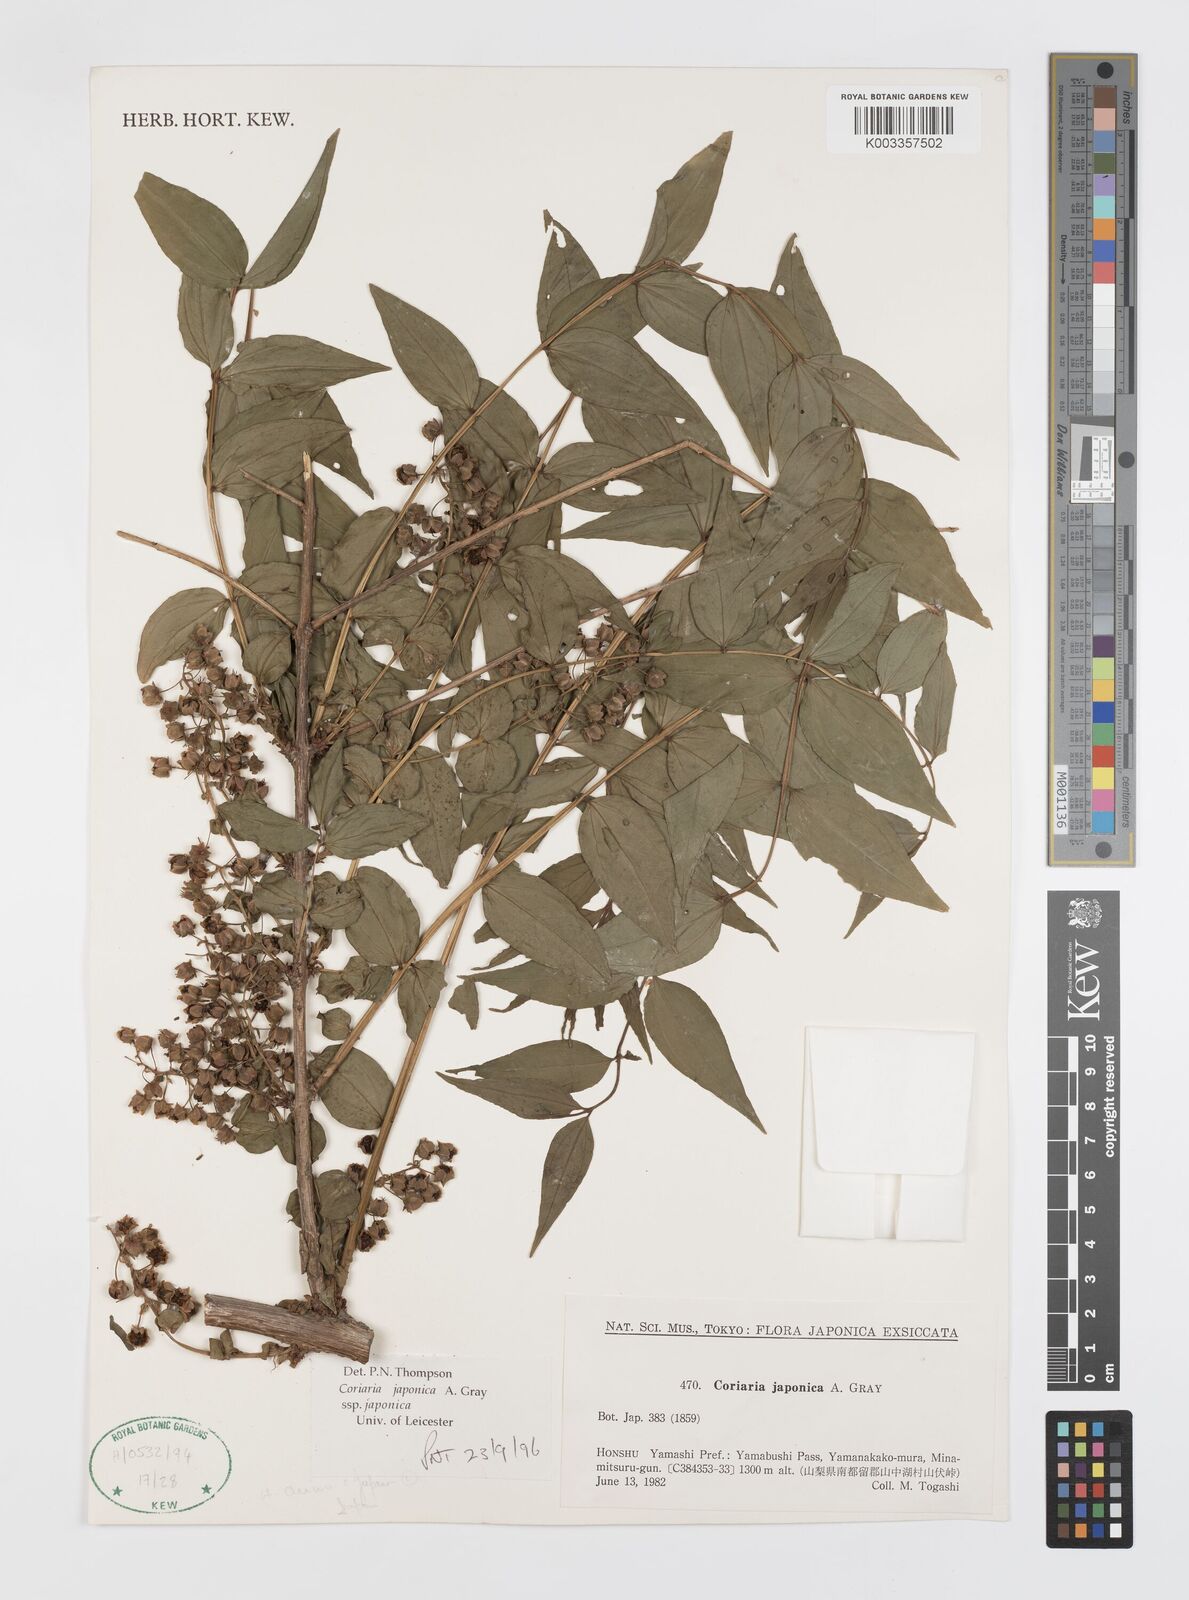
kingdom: Plantae
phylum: Tracheophyta
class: Magnoliopsida
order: Cucurbitales
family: Coriariaceae
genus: Coriaria
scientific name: Coriaria japonica
